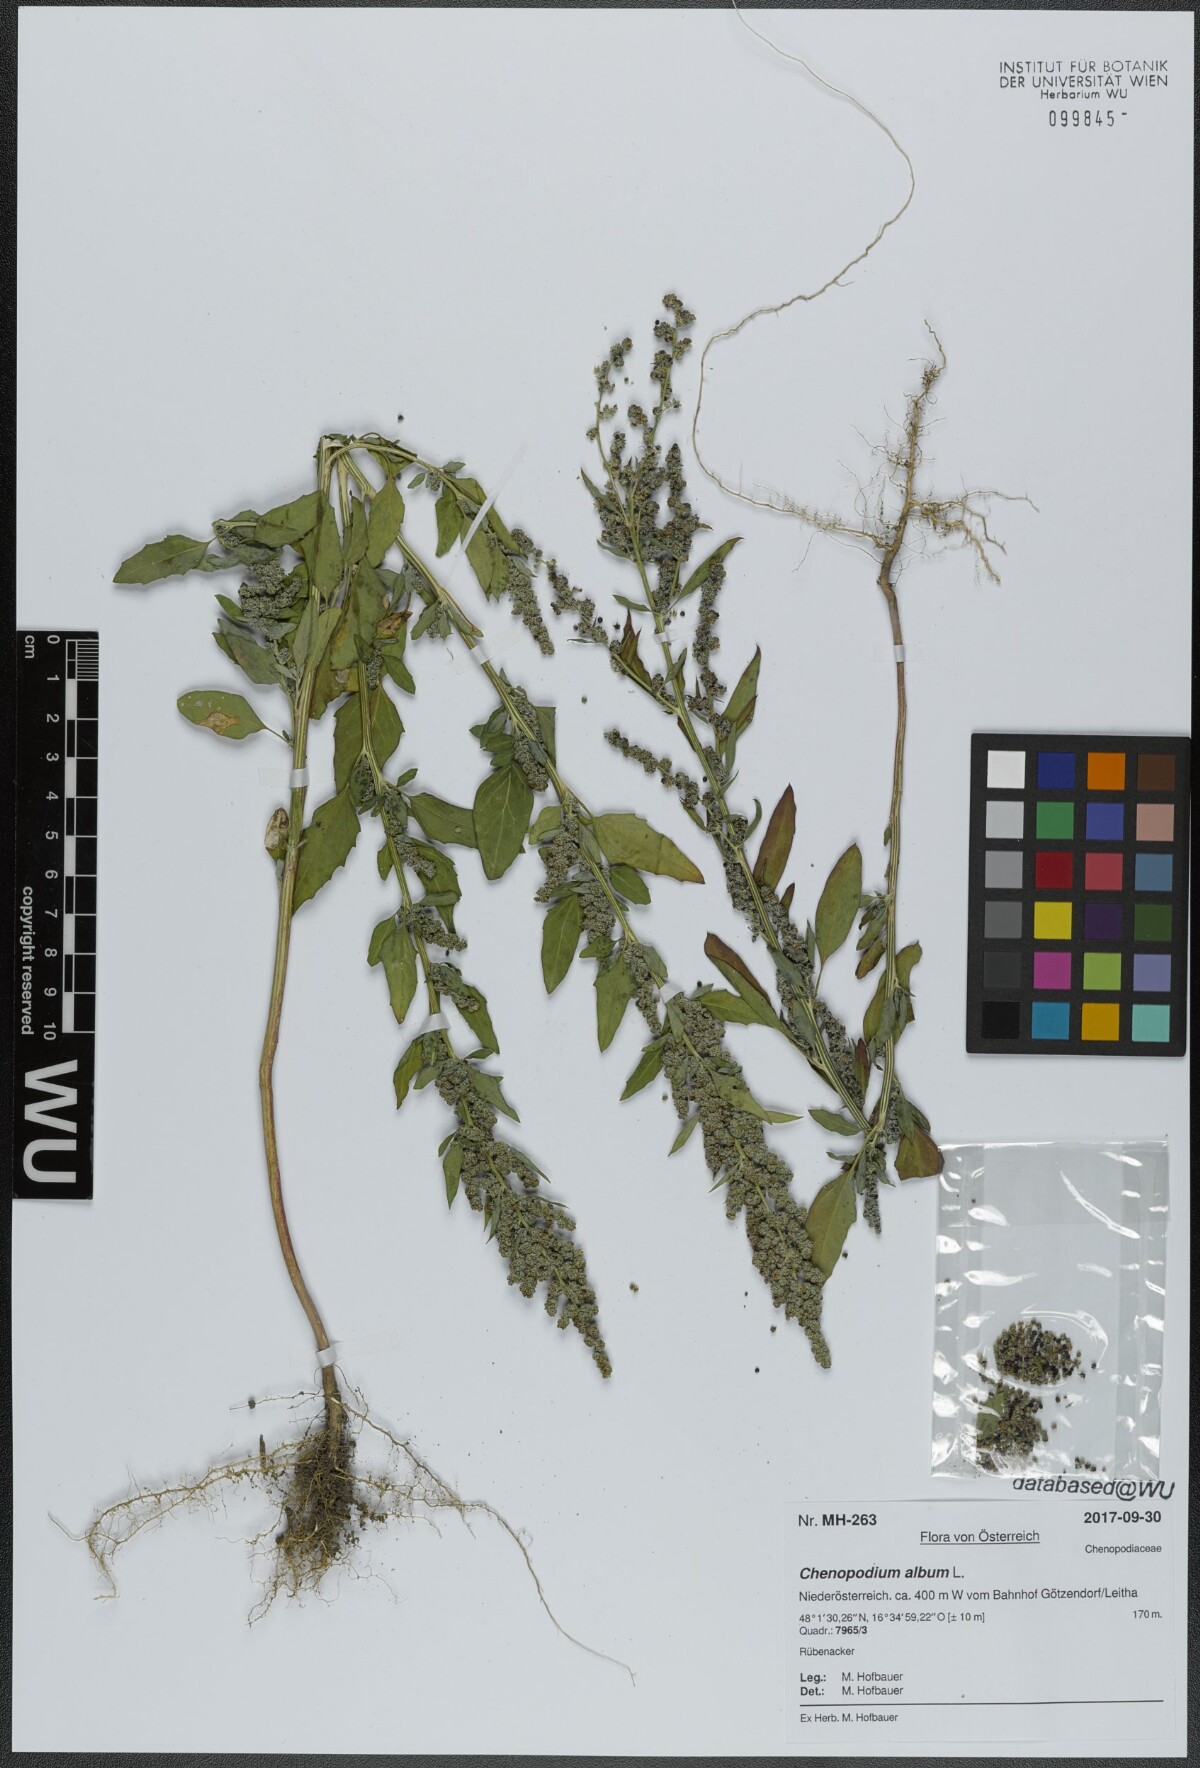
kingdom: Plantae
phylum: Tracheophyta
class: Magnoliopsida
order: Caryophyllales
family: Amaranthaceae
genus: Chenopodium
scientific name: Chenopodium album
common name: Fat-hen
